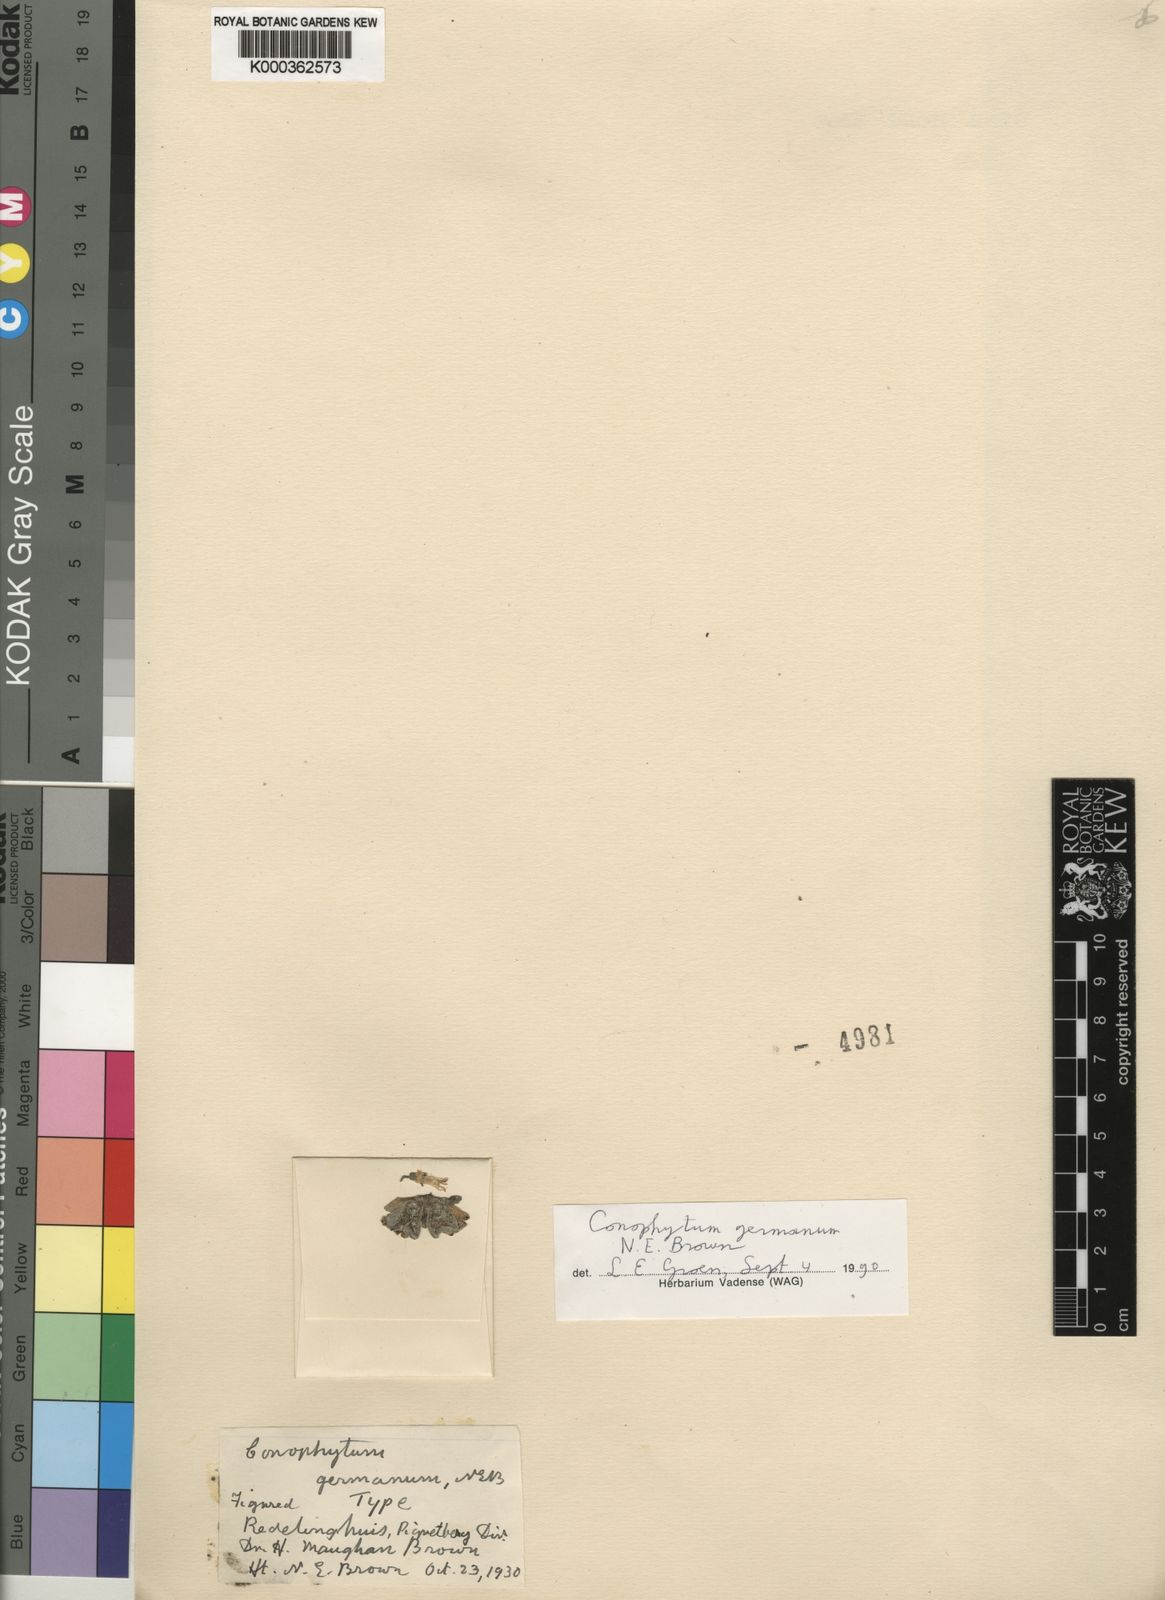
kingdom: Plantae
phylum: Tracheophyta
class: Magnoliopsida
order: Caryophyllales
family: Aizoaceae
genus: Conophytum
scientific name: Conophytum obcordellum
